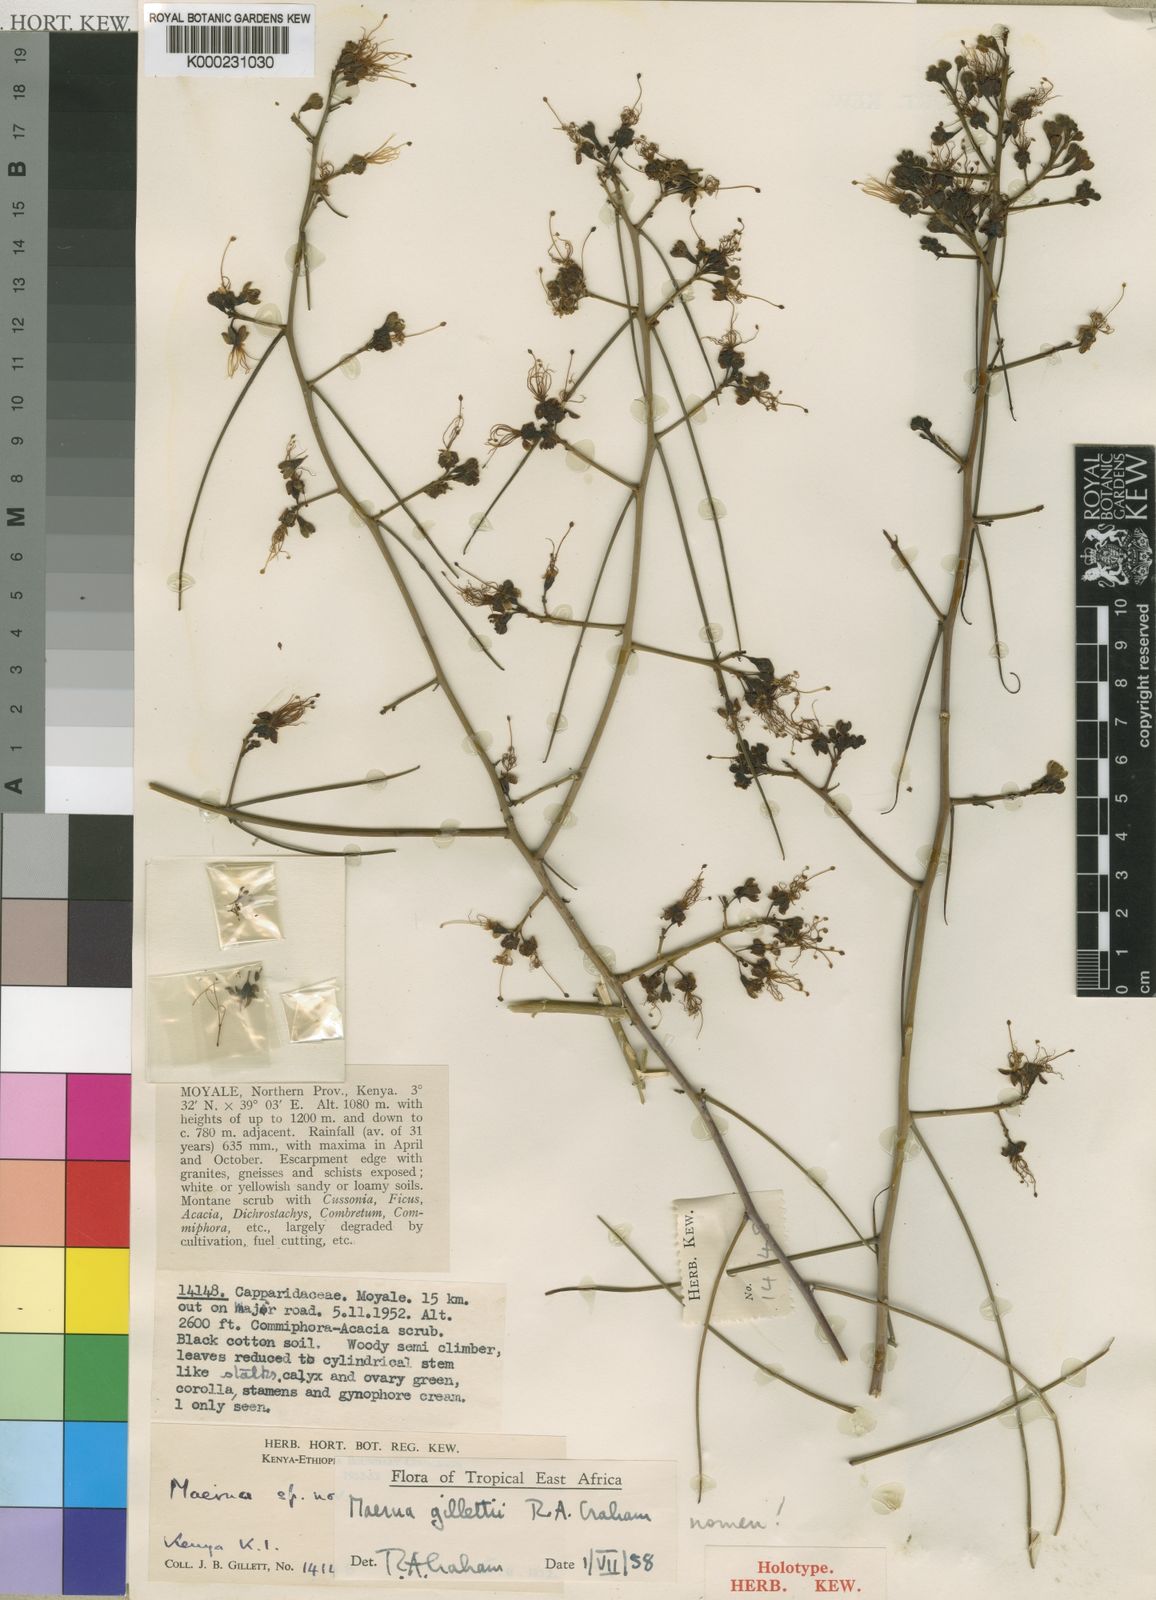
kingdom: Plantae
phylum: Tracheophyta
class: Magnoliopsida
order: Brassicales
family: Capparaceae
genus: Maerua
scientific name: Maerua
